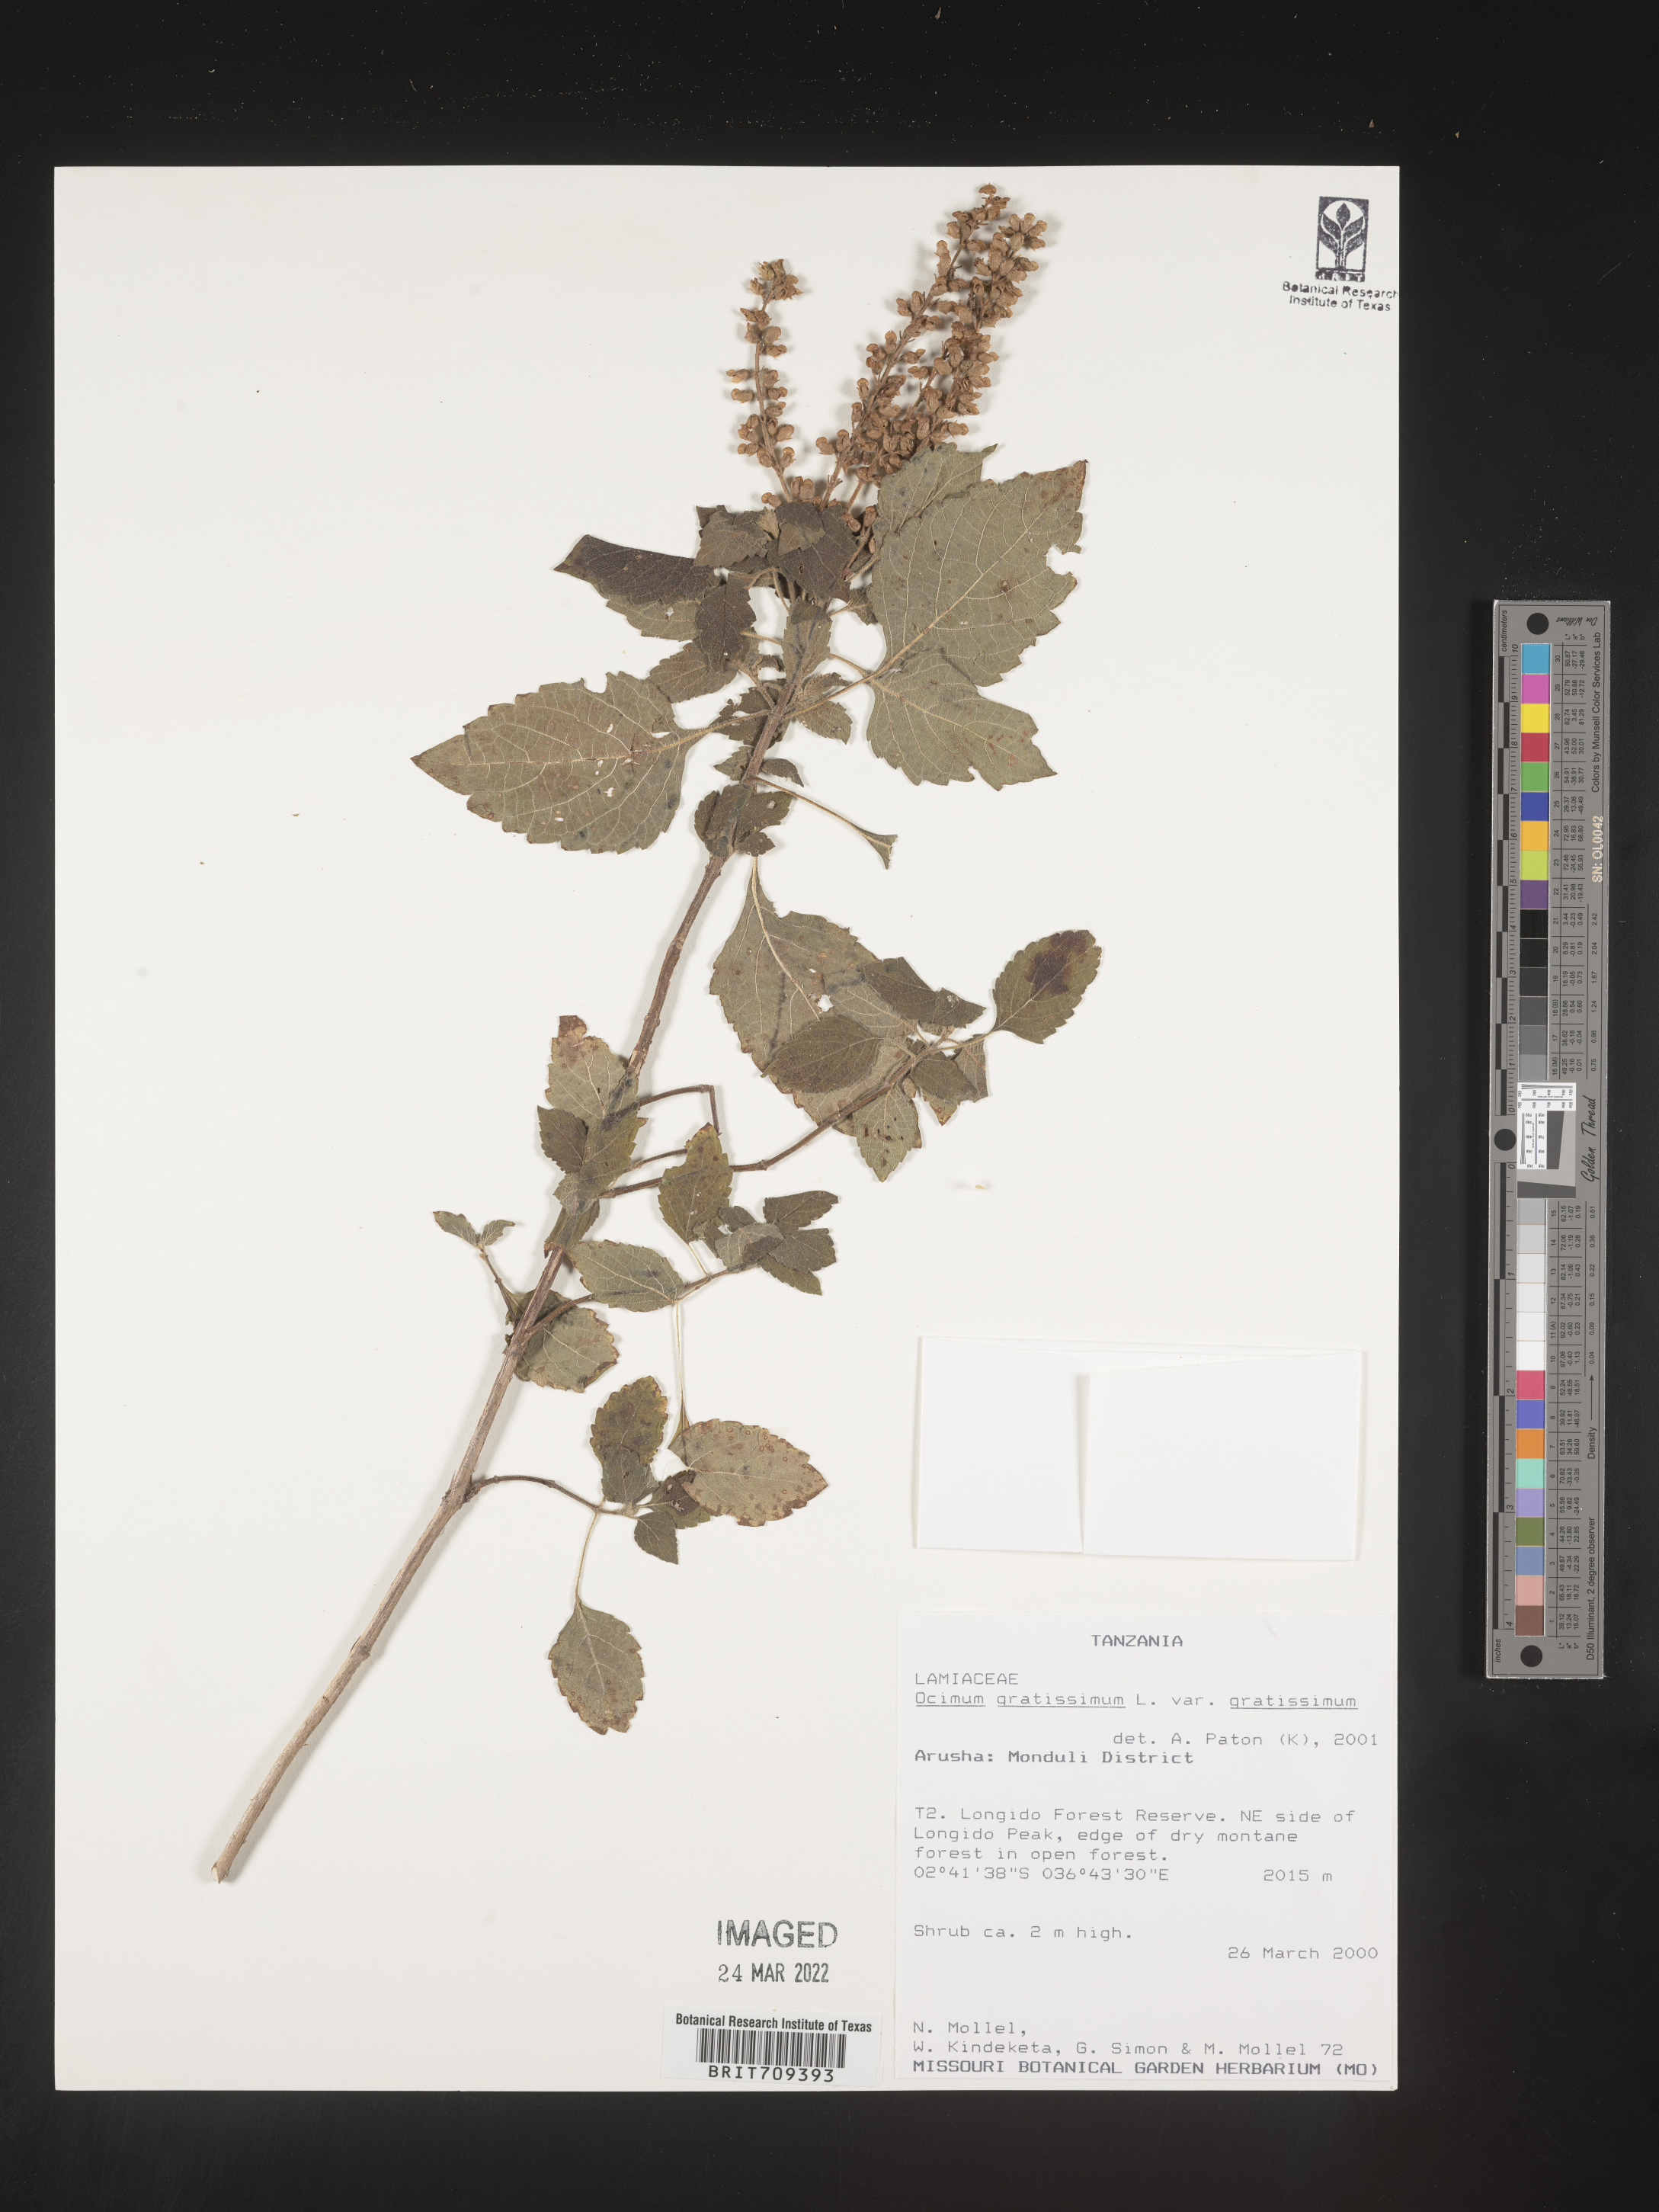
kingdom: Plantae
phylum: Tracheophyta
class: Magnoliopsida
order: Lamiales
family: Lamiaceae
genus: Ocimum
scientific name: Ocimum
